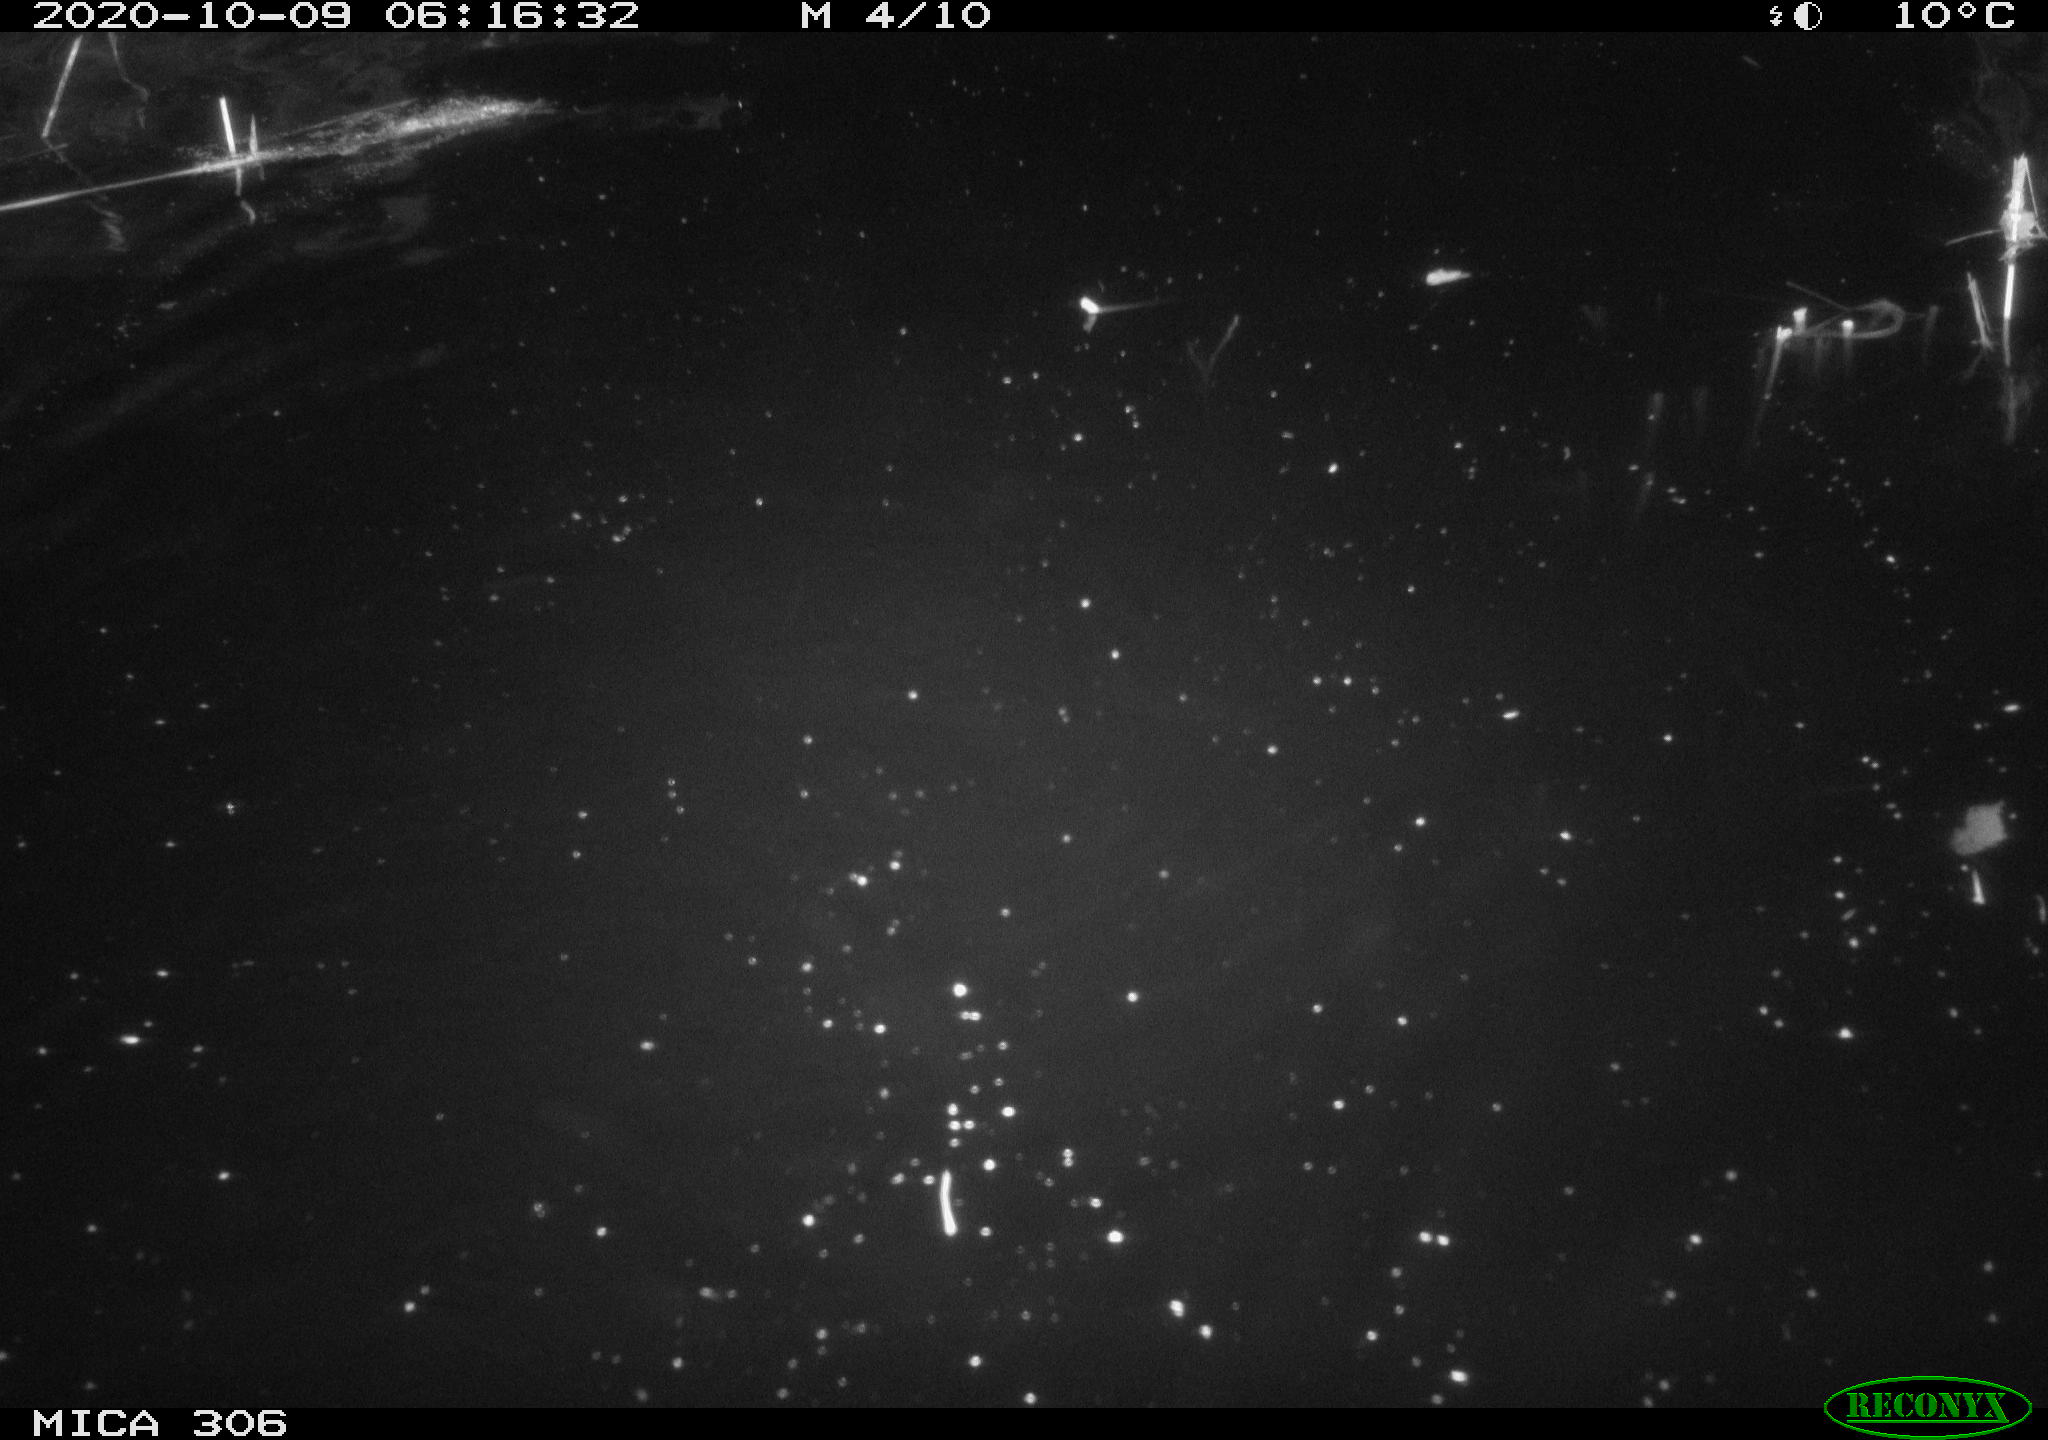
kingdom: Animalia
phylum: Chordata
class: Mammalia
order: Rodentia
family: Cricetidae
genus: Ondatra
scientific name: Ondatra zibethicus
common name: Muskrat
